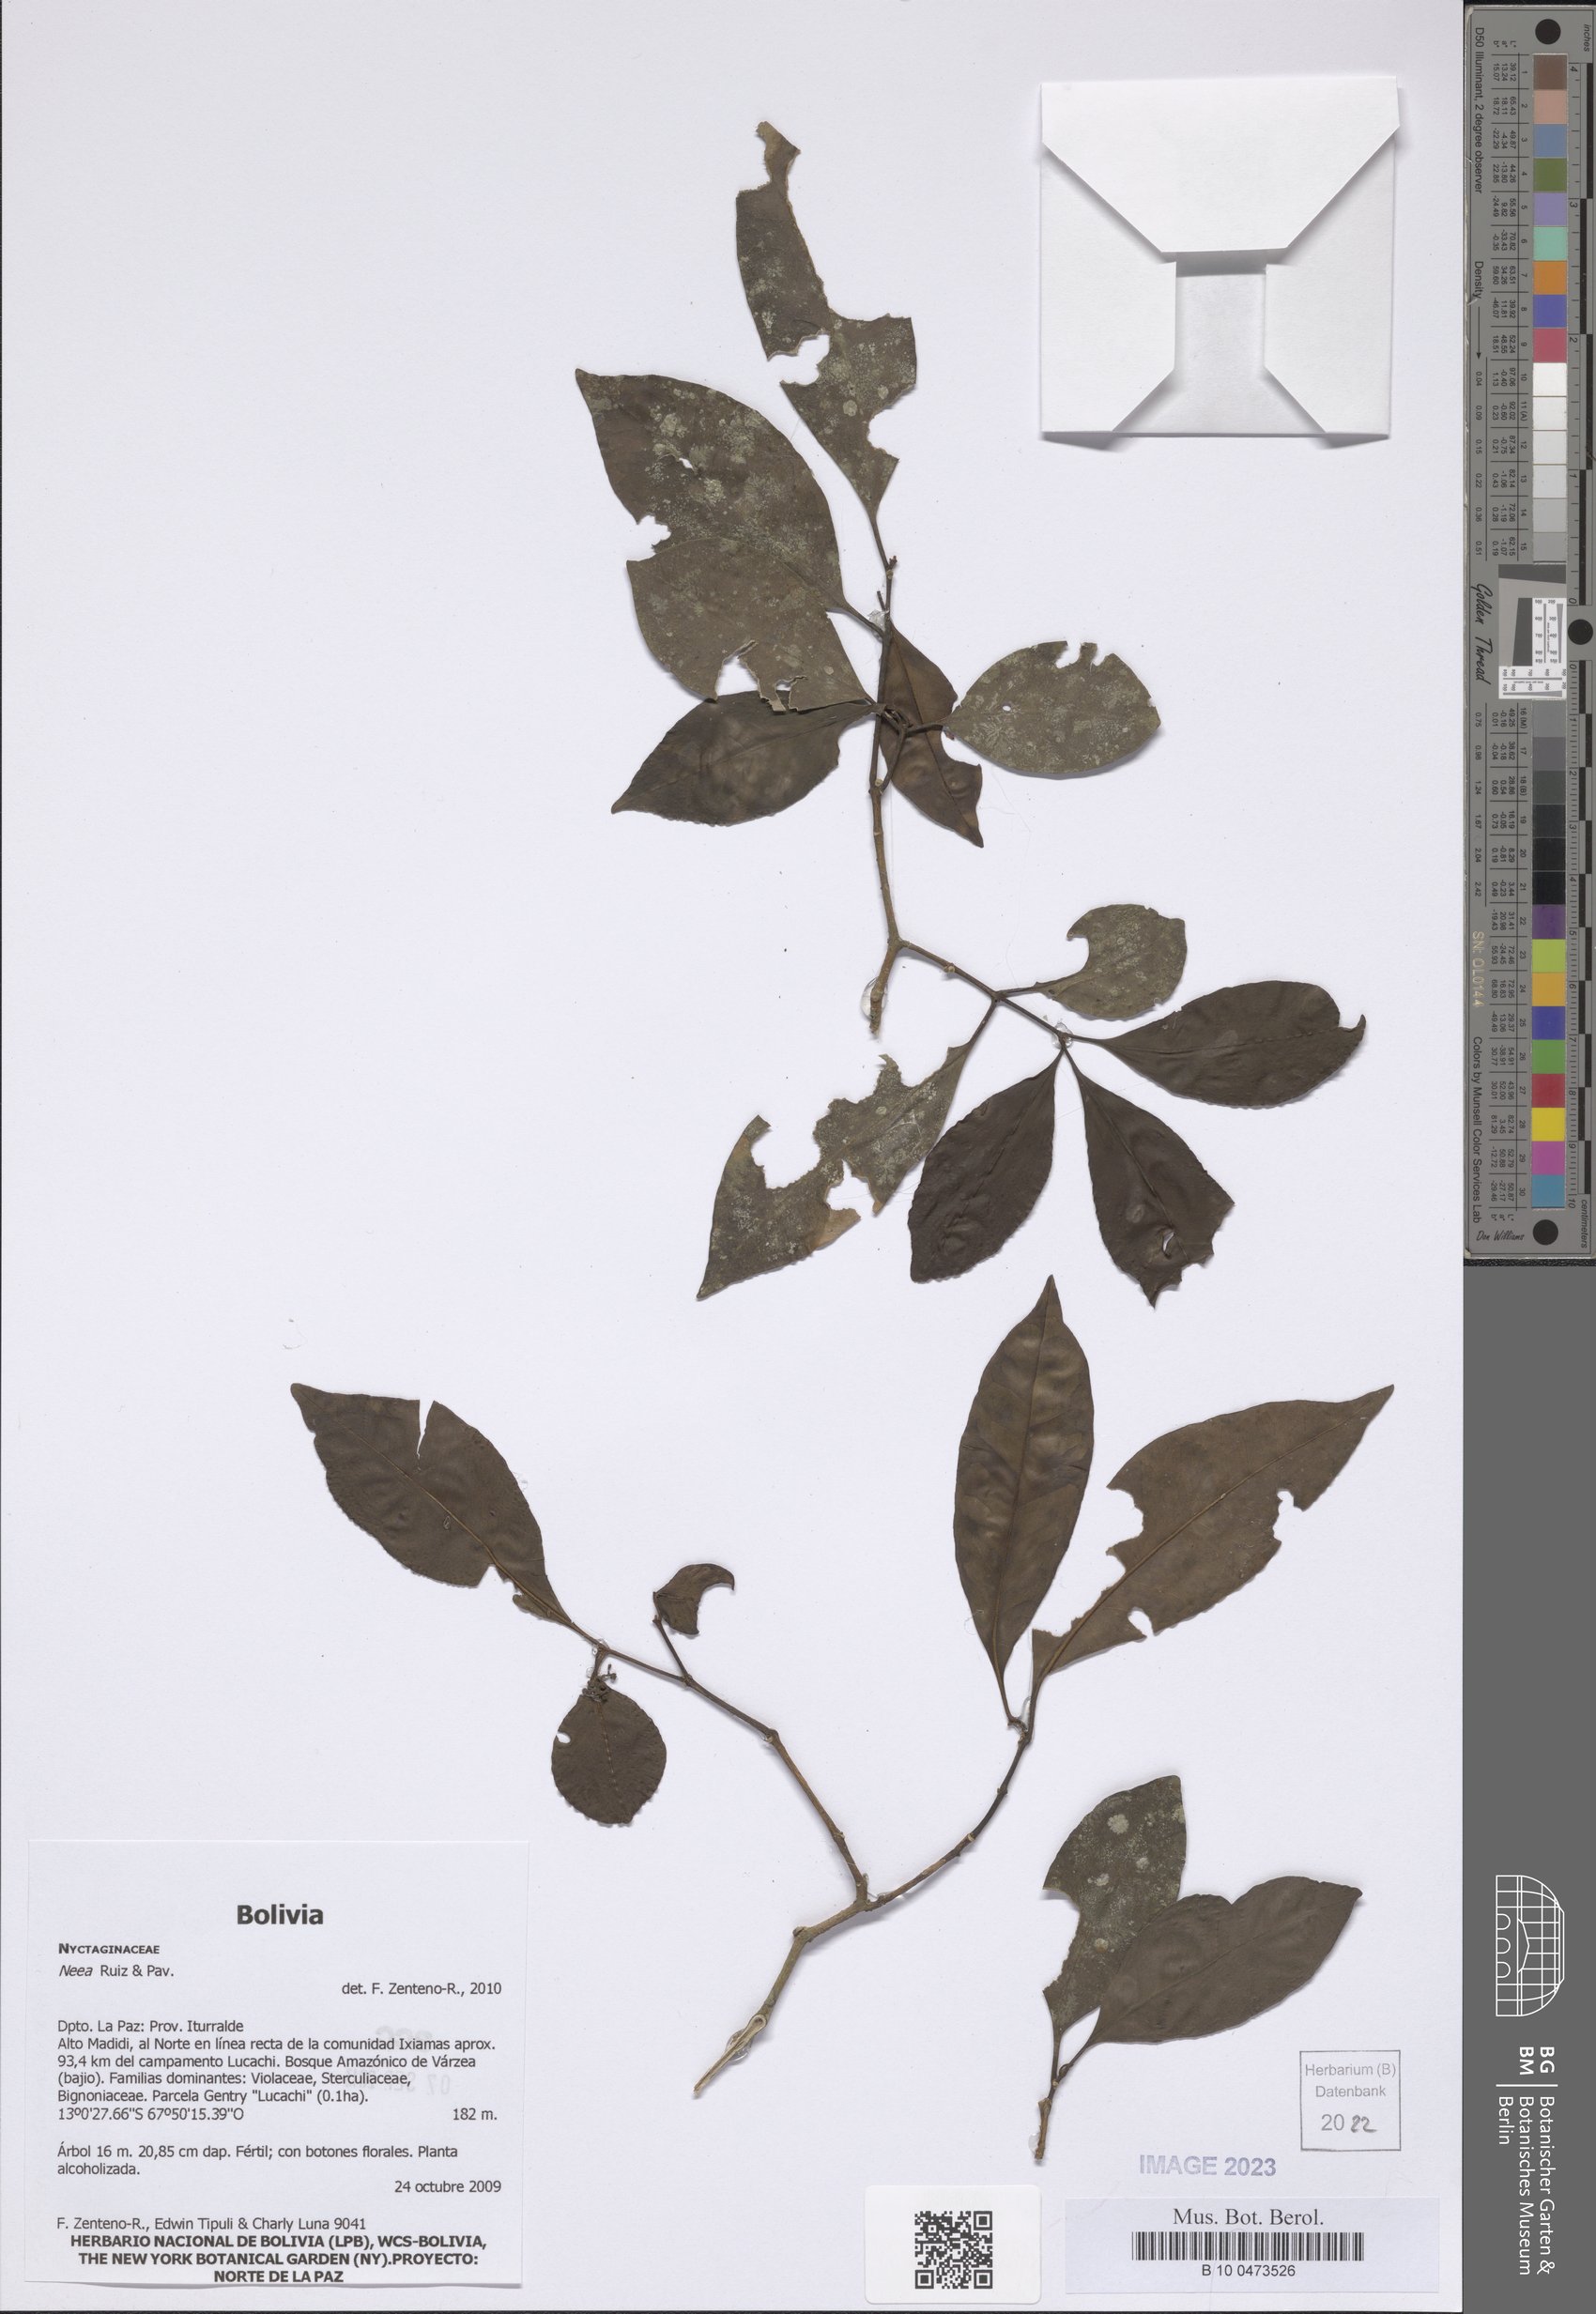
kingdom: Plantae
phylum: Tracheophyta
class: Magnoliopsida
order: Caryophyllales
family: Nyctaginaceae
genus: Neea
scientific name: Neea
